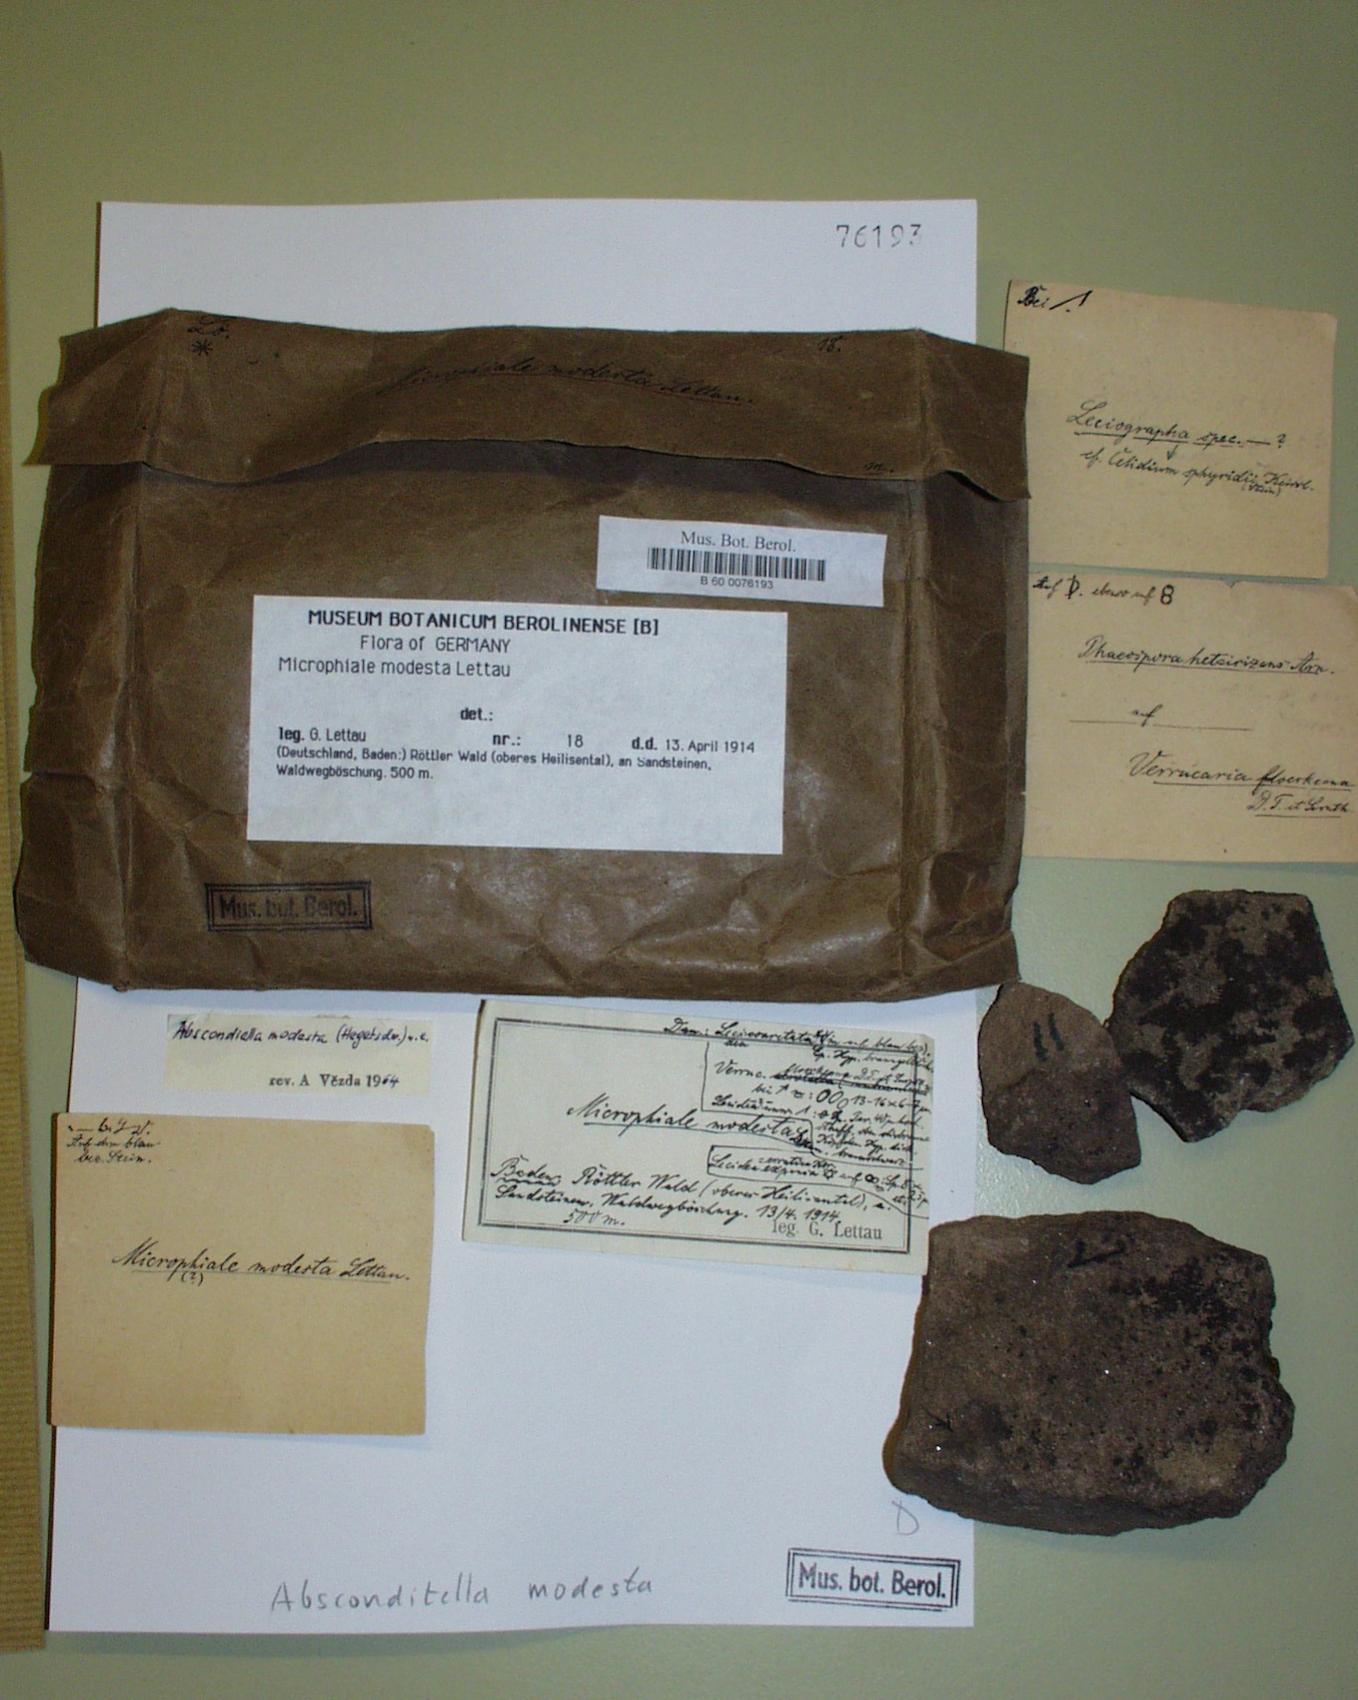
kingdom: Fungi
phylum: Ascomycota
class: Lecanoromycetes
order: Ostropales
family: Stictidaceae
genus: Absconditella
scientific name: Absconditella delutula
